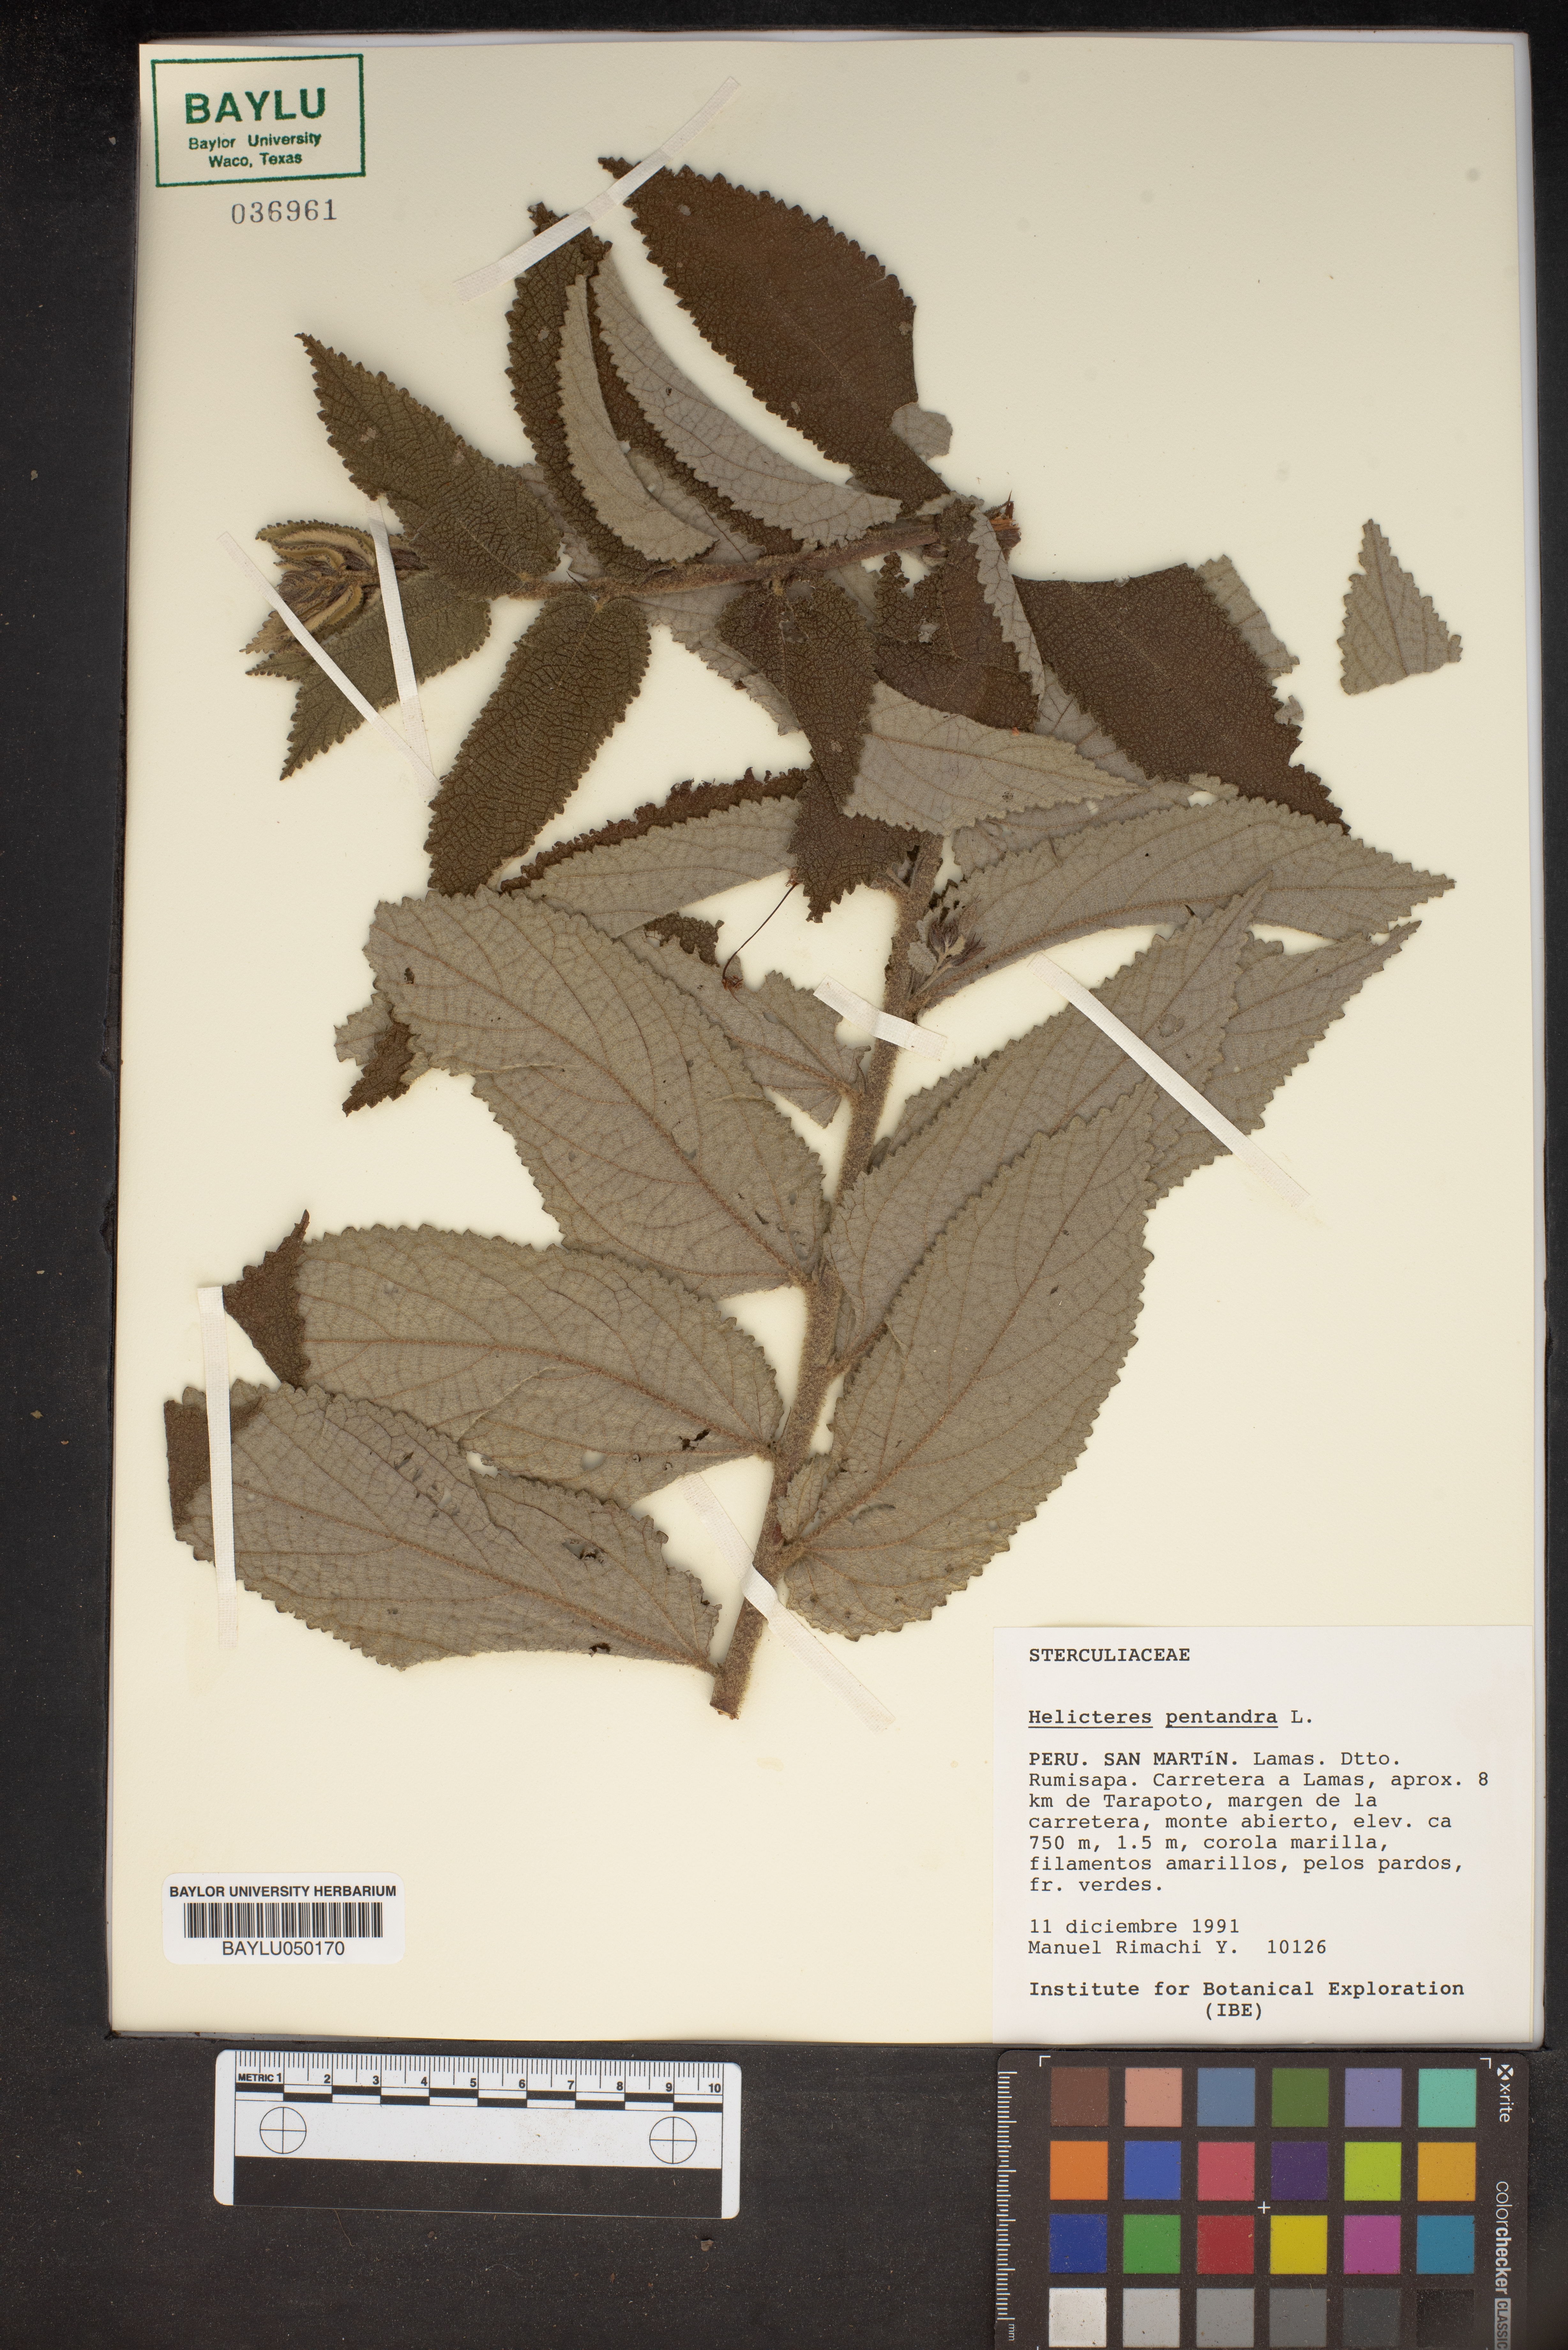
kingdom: Plantae
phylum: Tracheophyta
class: Magnoliopsida
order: Malvales
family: Malvaceae
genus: Helicteres
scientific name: Helicteres pentandra
